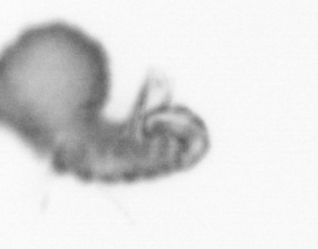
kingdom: Animalia
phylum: Annelida
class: Polychaeta
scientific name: Polychaeta
